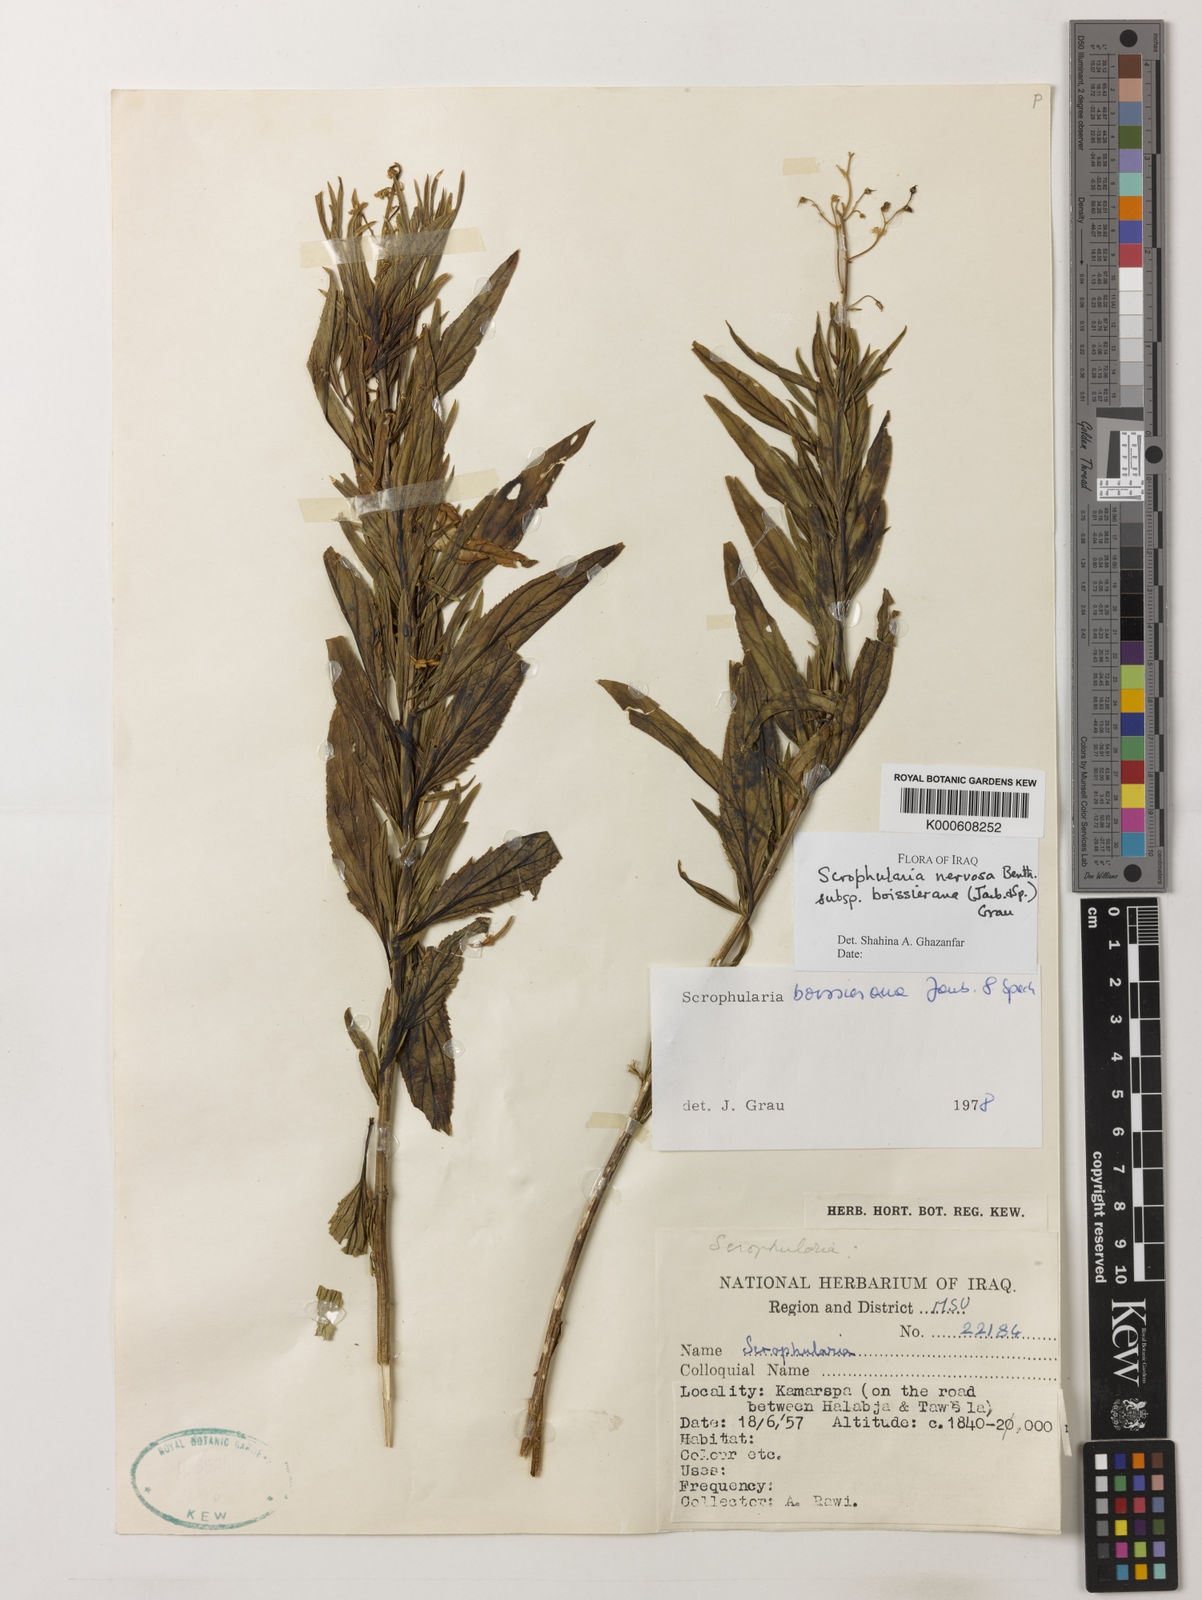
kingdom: Plantae
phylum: Tracheophyta
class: Magnoliopsida
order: Lamiales
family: Scrophulariaceae
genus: Scrophularia
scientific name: Scrophularia nervosa
